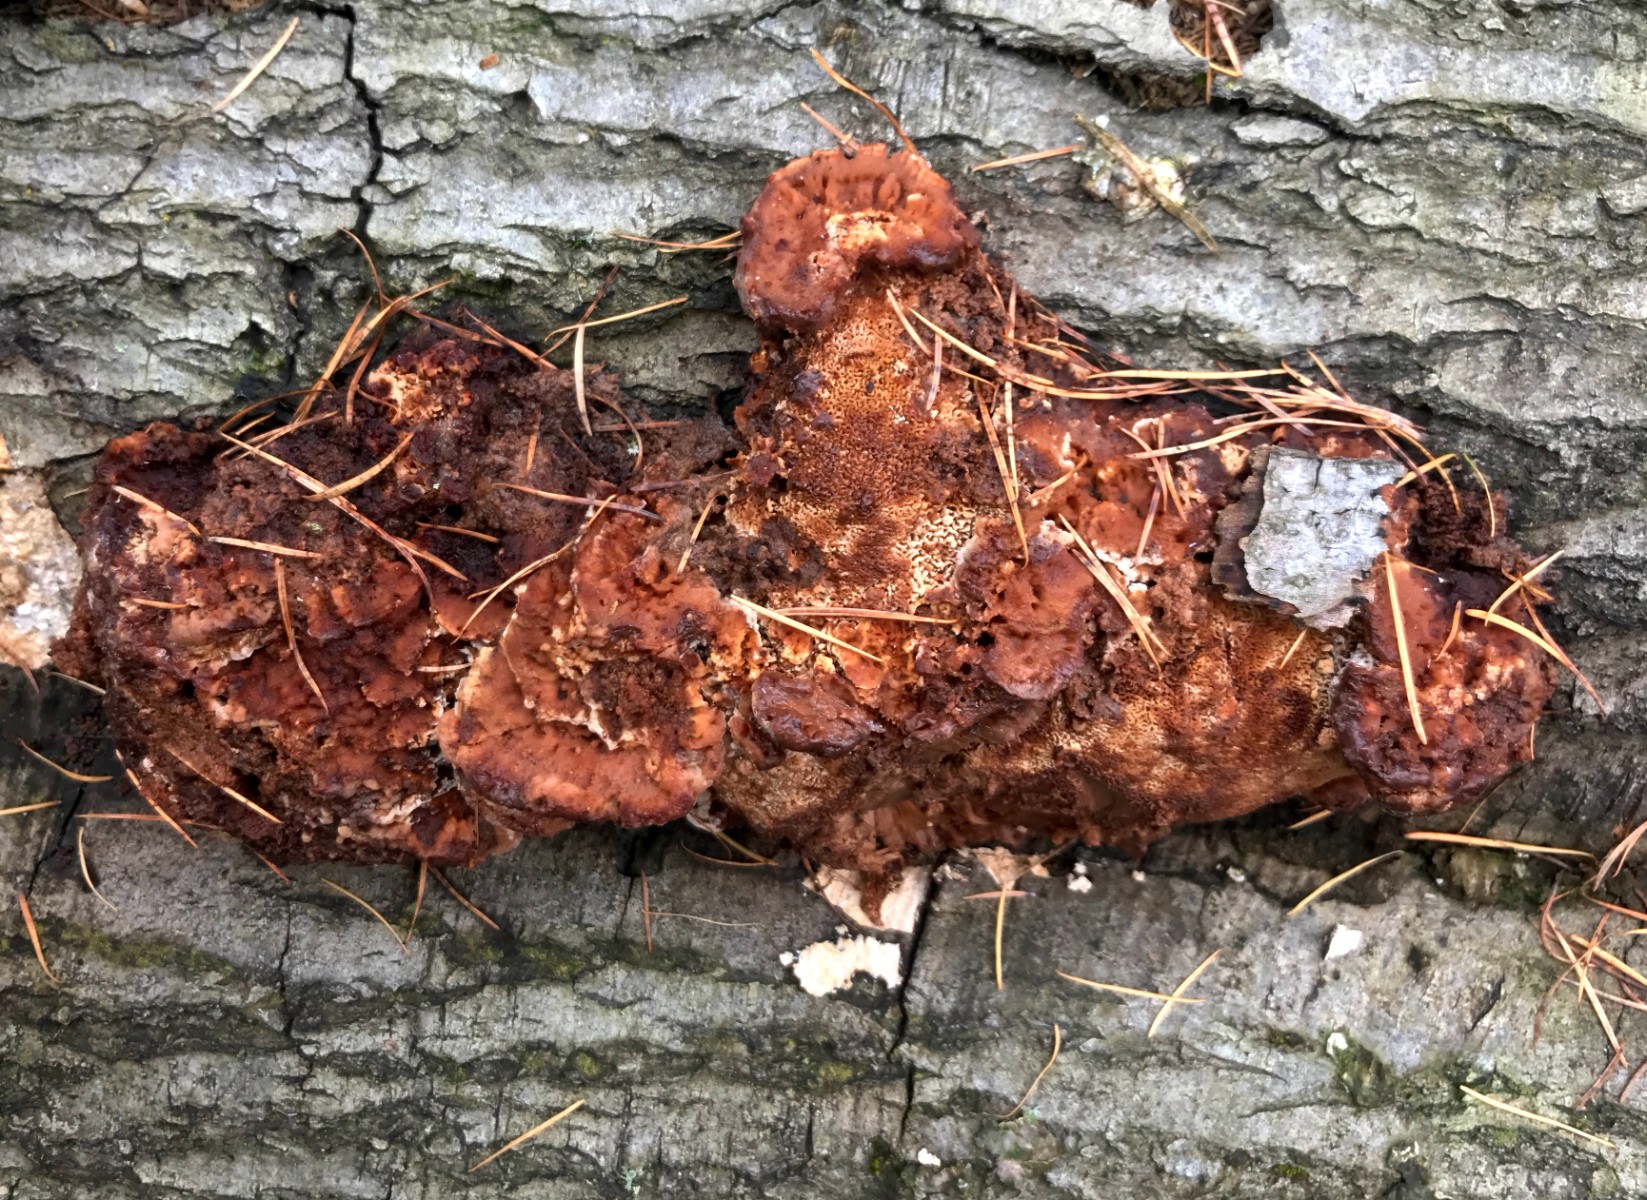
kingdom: Fungi
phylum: Basidiomycota
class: Agaricomycetes
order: Polyporales
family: Polyporaceae
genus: Trametes
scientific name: Trametes gibbosa
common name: puklet læderporesvamp
